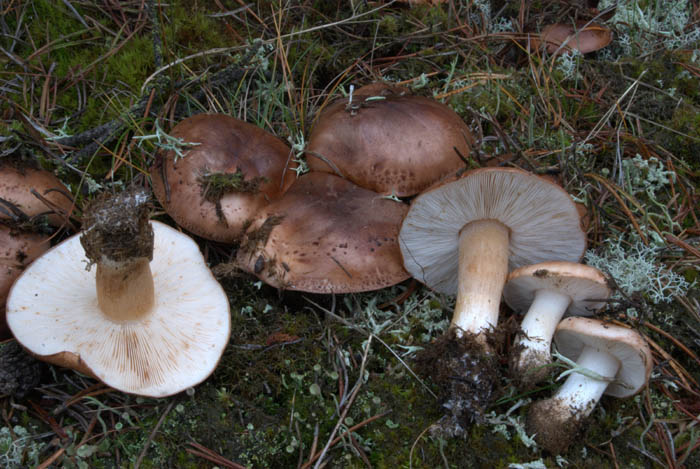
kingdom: Fungi
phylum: Basidiomycota
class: Agaricomycetes
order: Agaricales
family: Tricholomataceae
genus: Tricholoma
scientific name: Tricholoma pessundatum
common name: dråbeplettet ridderhat
